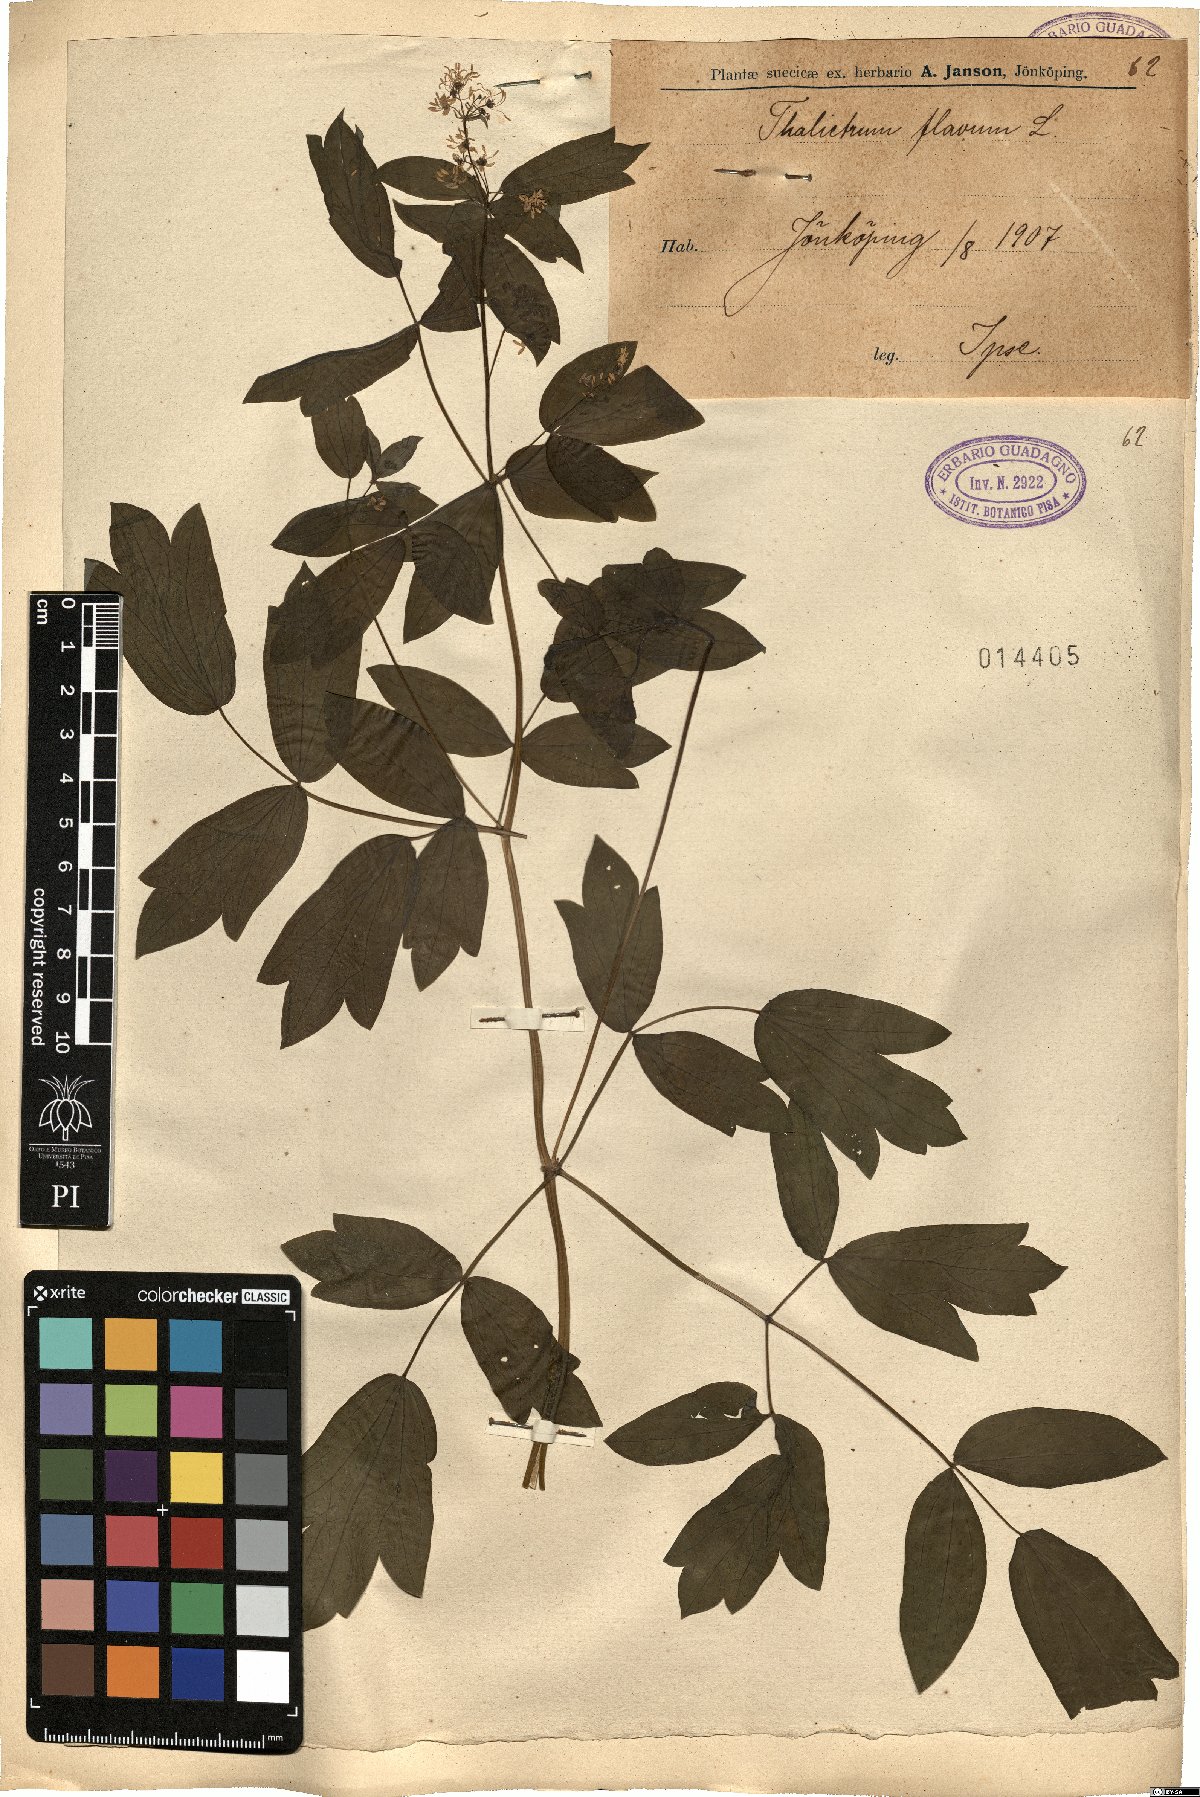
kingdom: Plantae
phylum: Tracheophyta
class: Magnoliopsida
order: Ranunculales
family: Ranunculaceae
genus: Thalictrum
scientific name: Thalictrum flavum
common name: Common meadow-rue
